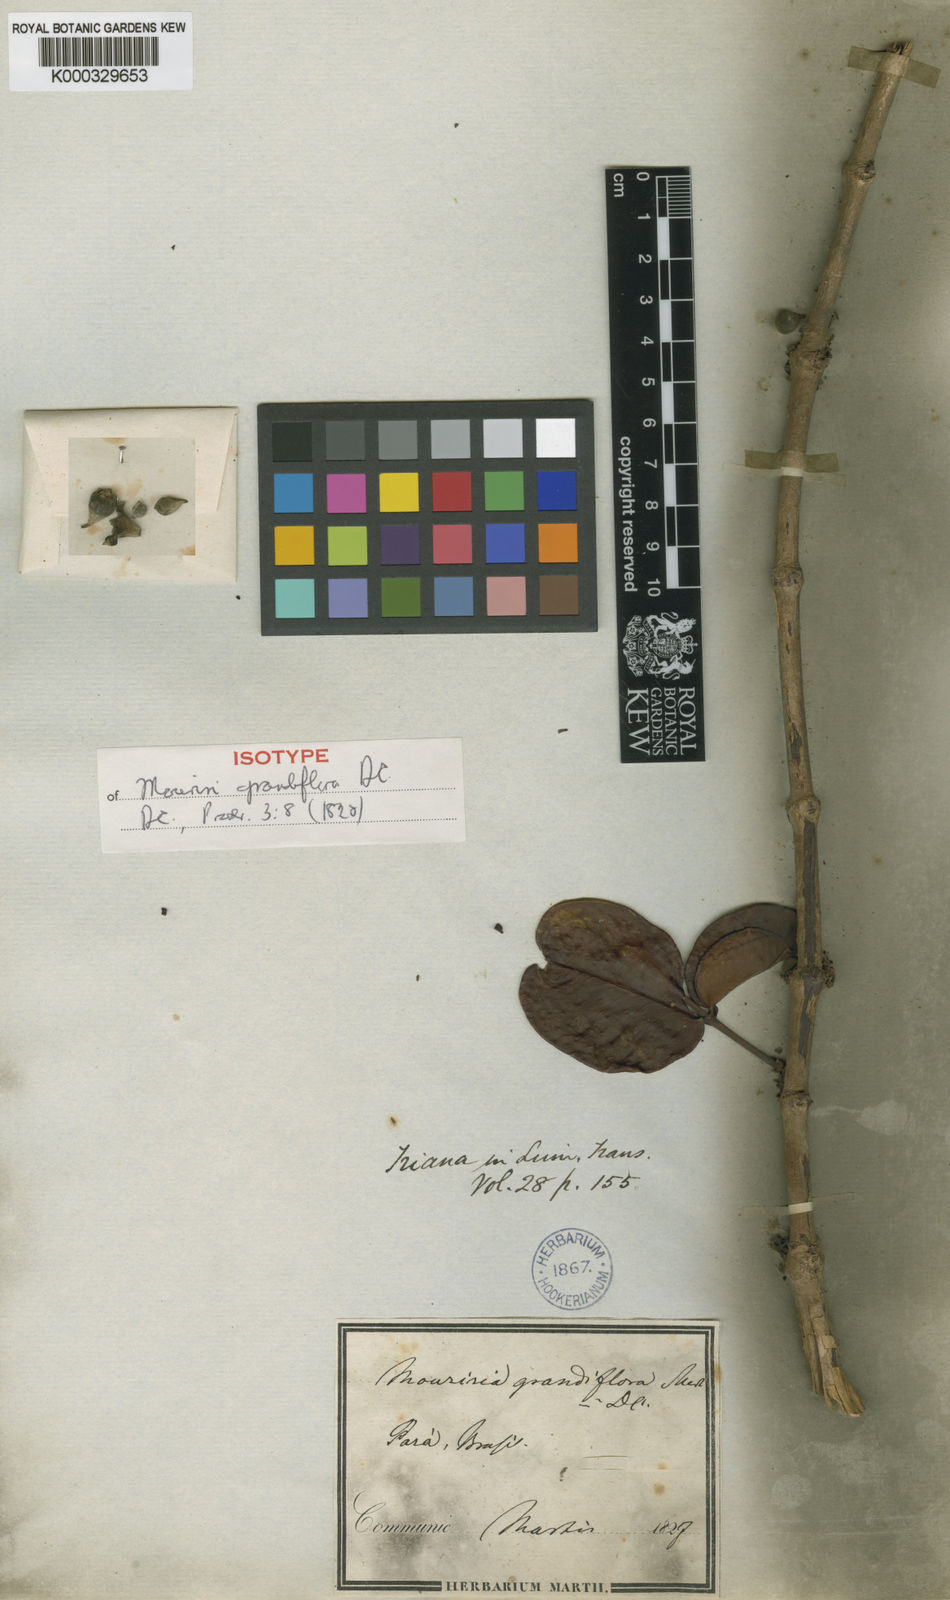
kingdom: Plantae
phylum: Tracheophyta
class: Magnoliopsida
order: Myrtales
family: Melastomataceae
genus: Mouriri
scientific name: Mouriri grandiflora
